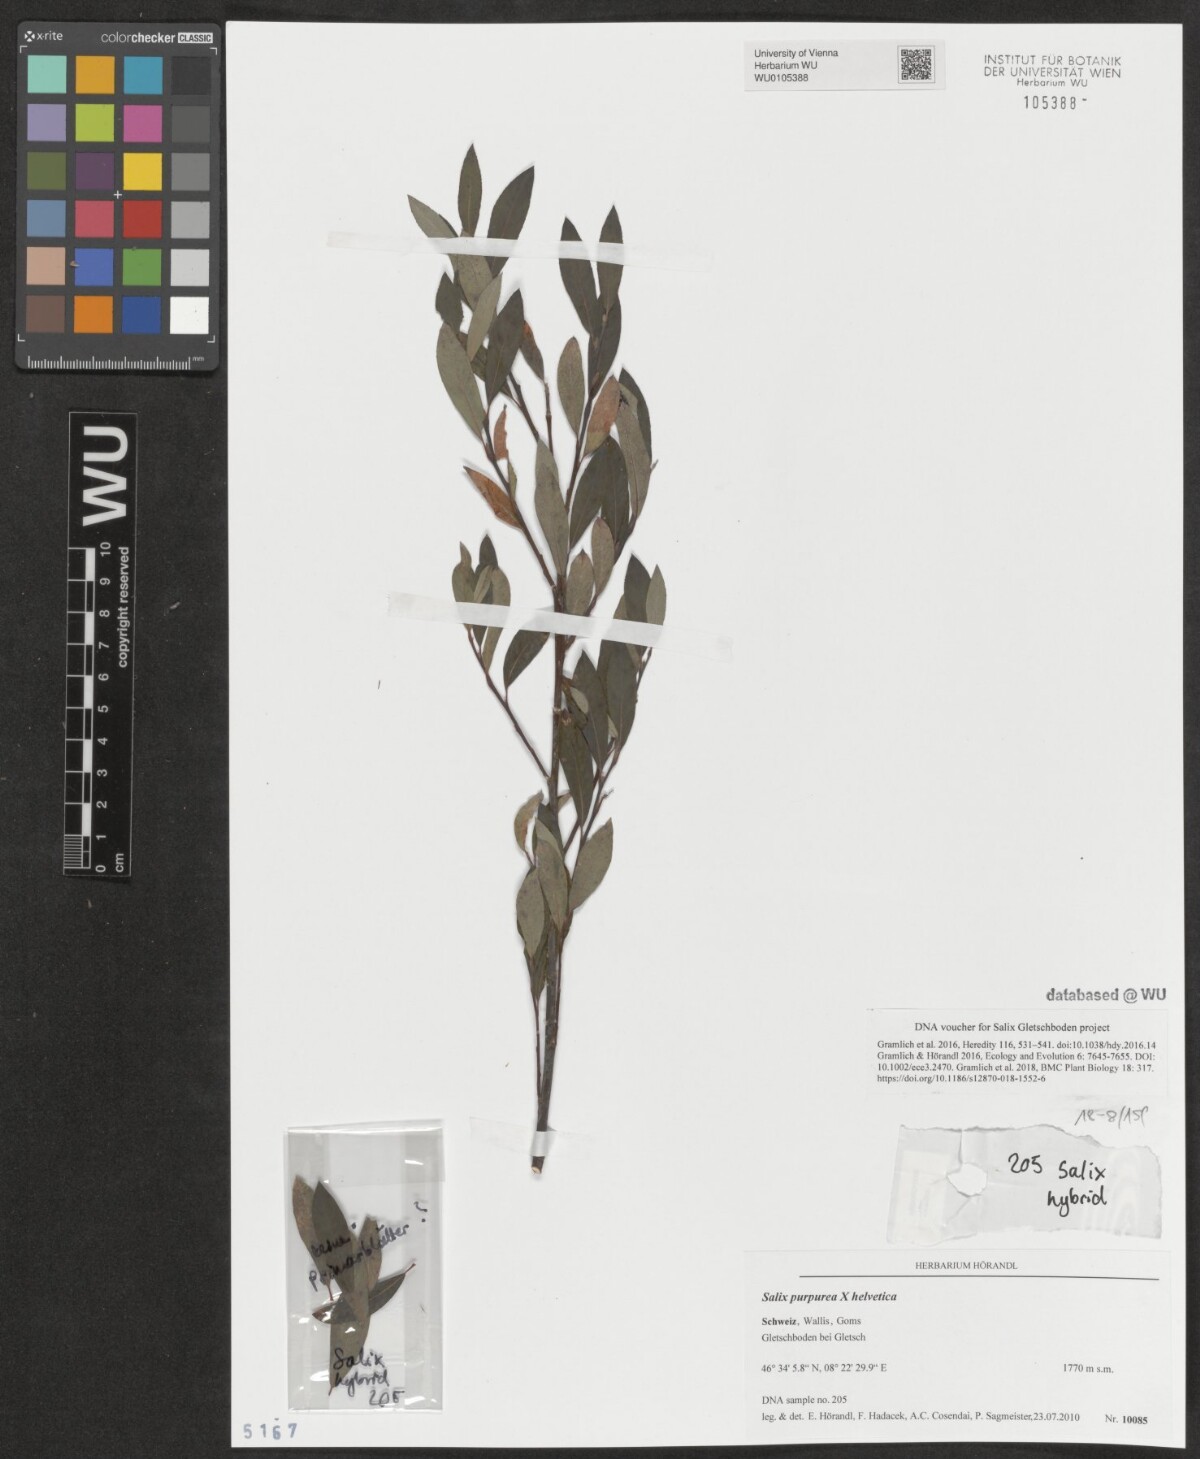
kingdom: Plantae
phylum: Tracheophyta
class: Magnoliopsida
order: Malpighiales
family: Salicaceae
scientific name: Salicaceae
